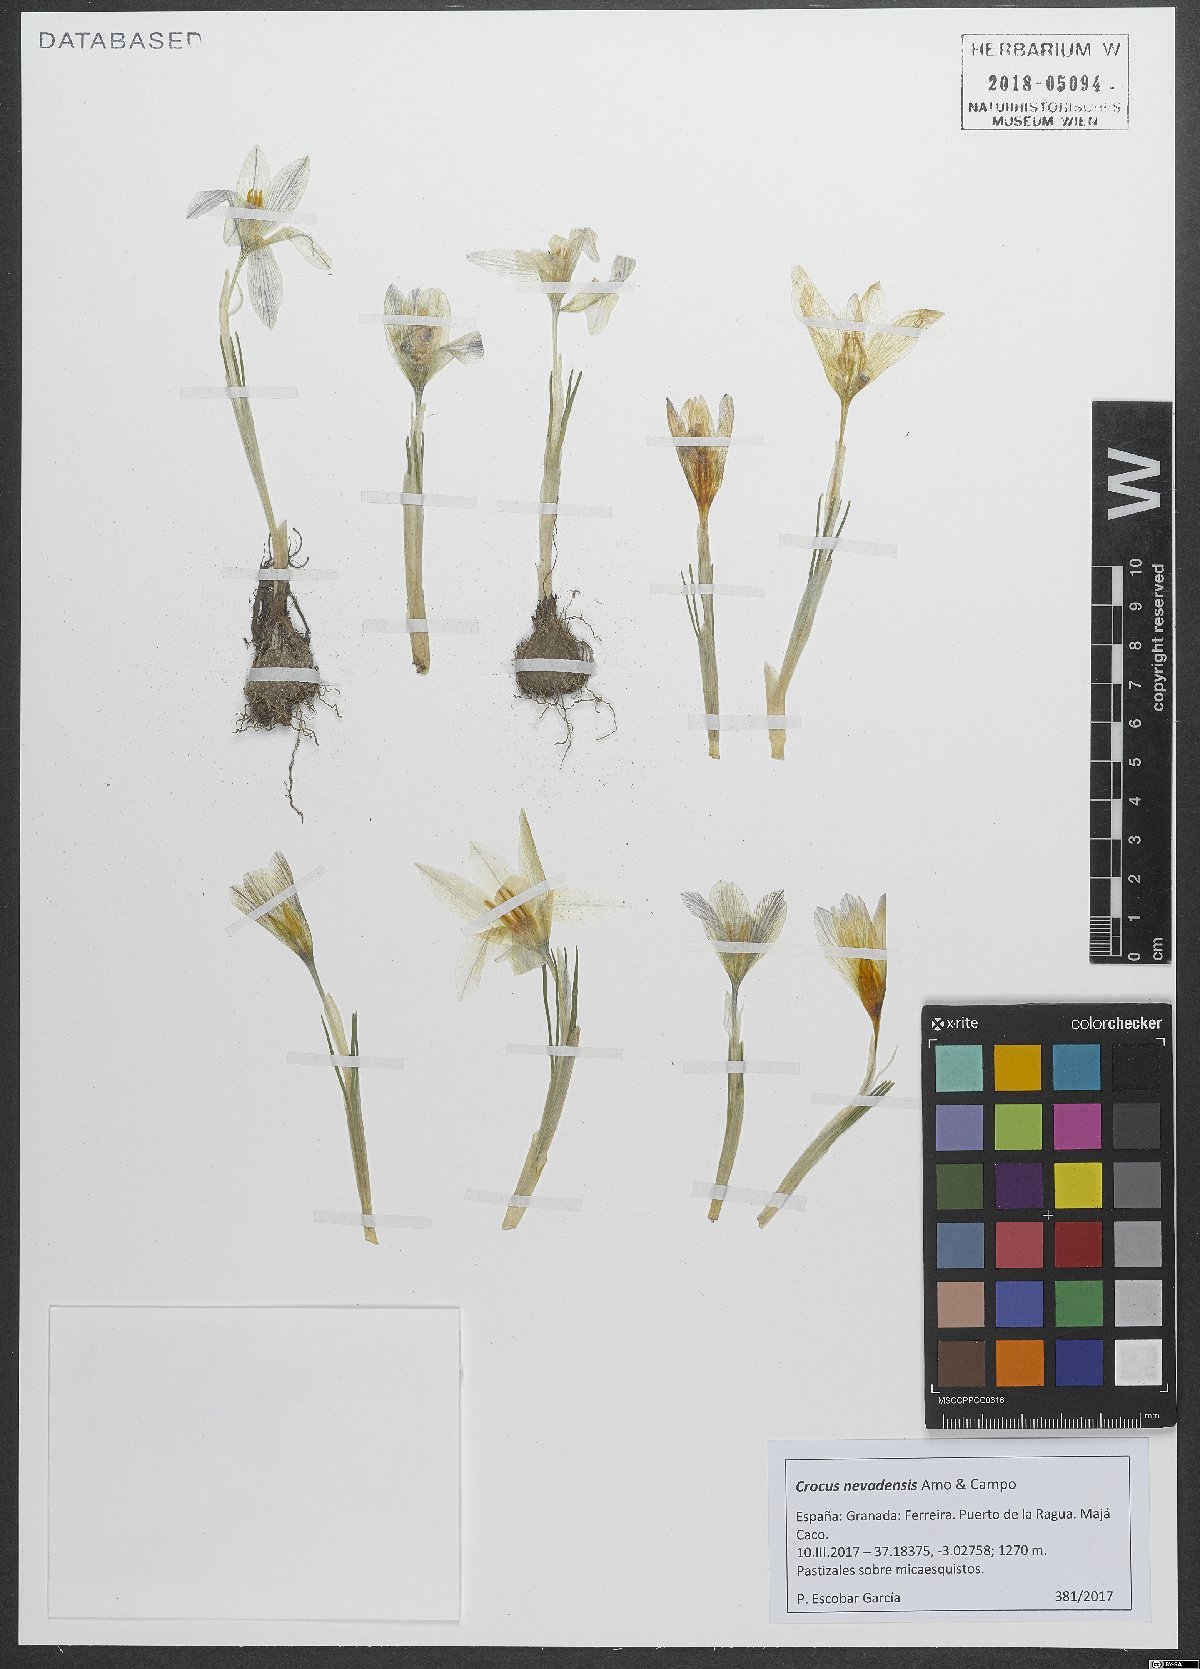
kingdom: Plantae
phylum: Tracheophyta
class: Liliopsida
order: Asparagales
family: Iridaceae
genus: Crocus
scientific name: Crocus nevadensis
